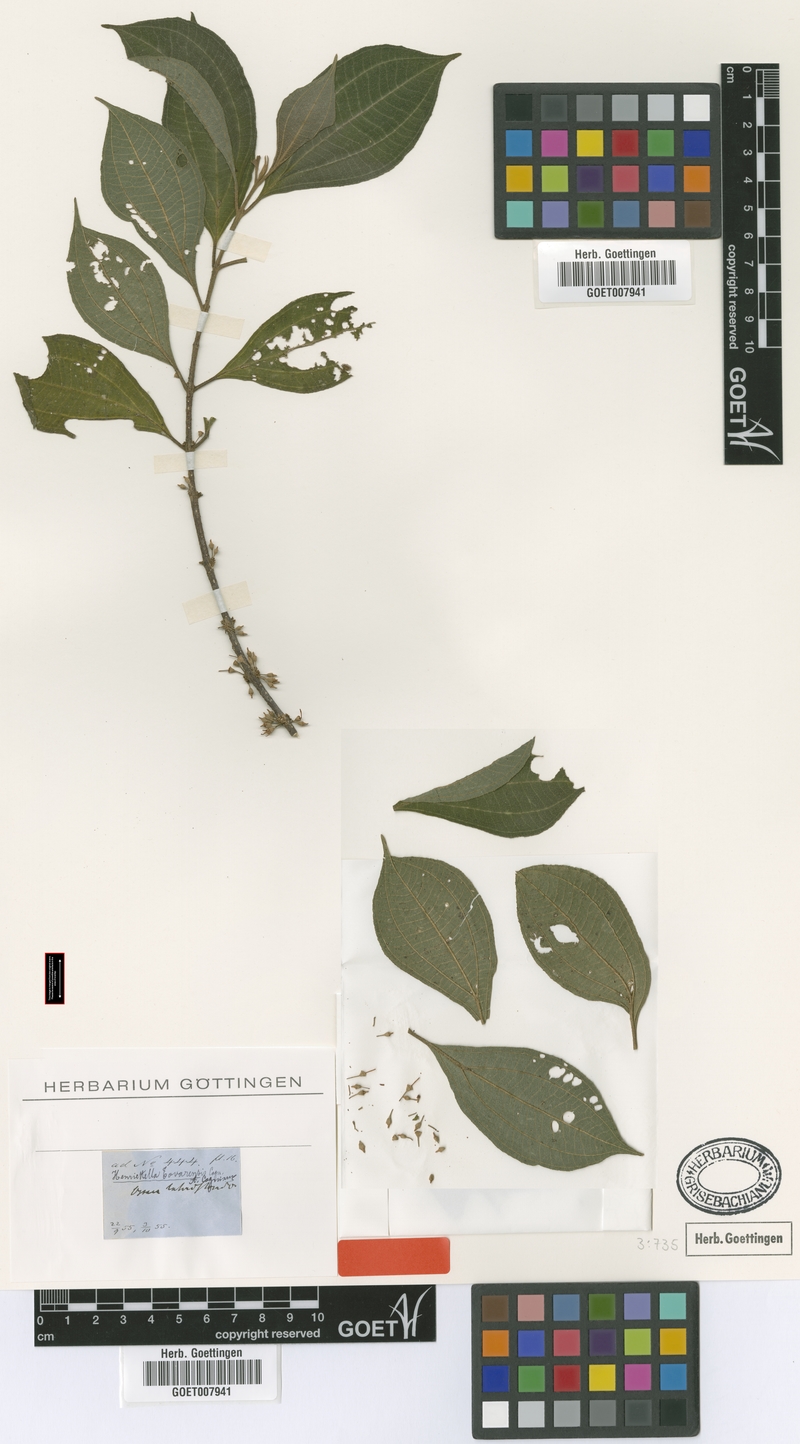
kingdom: Plantae
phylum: Tracheophyta
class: Magnoliopsida
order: Myrtales
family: Melastomataceae
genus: Henriettea
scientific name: Henriettea tovarensis
